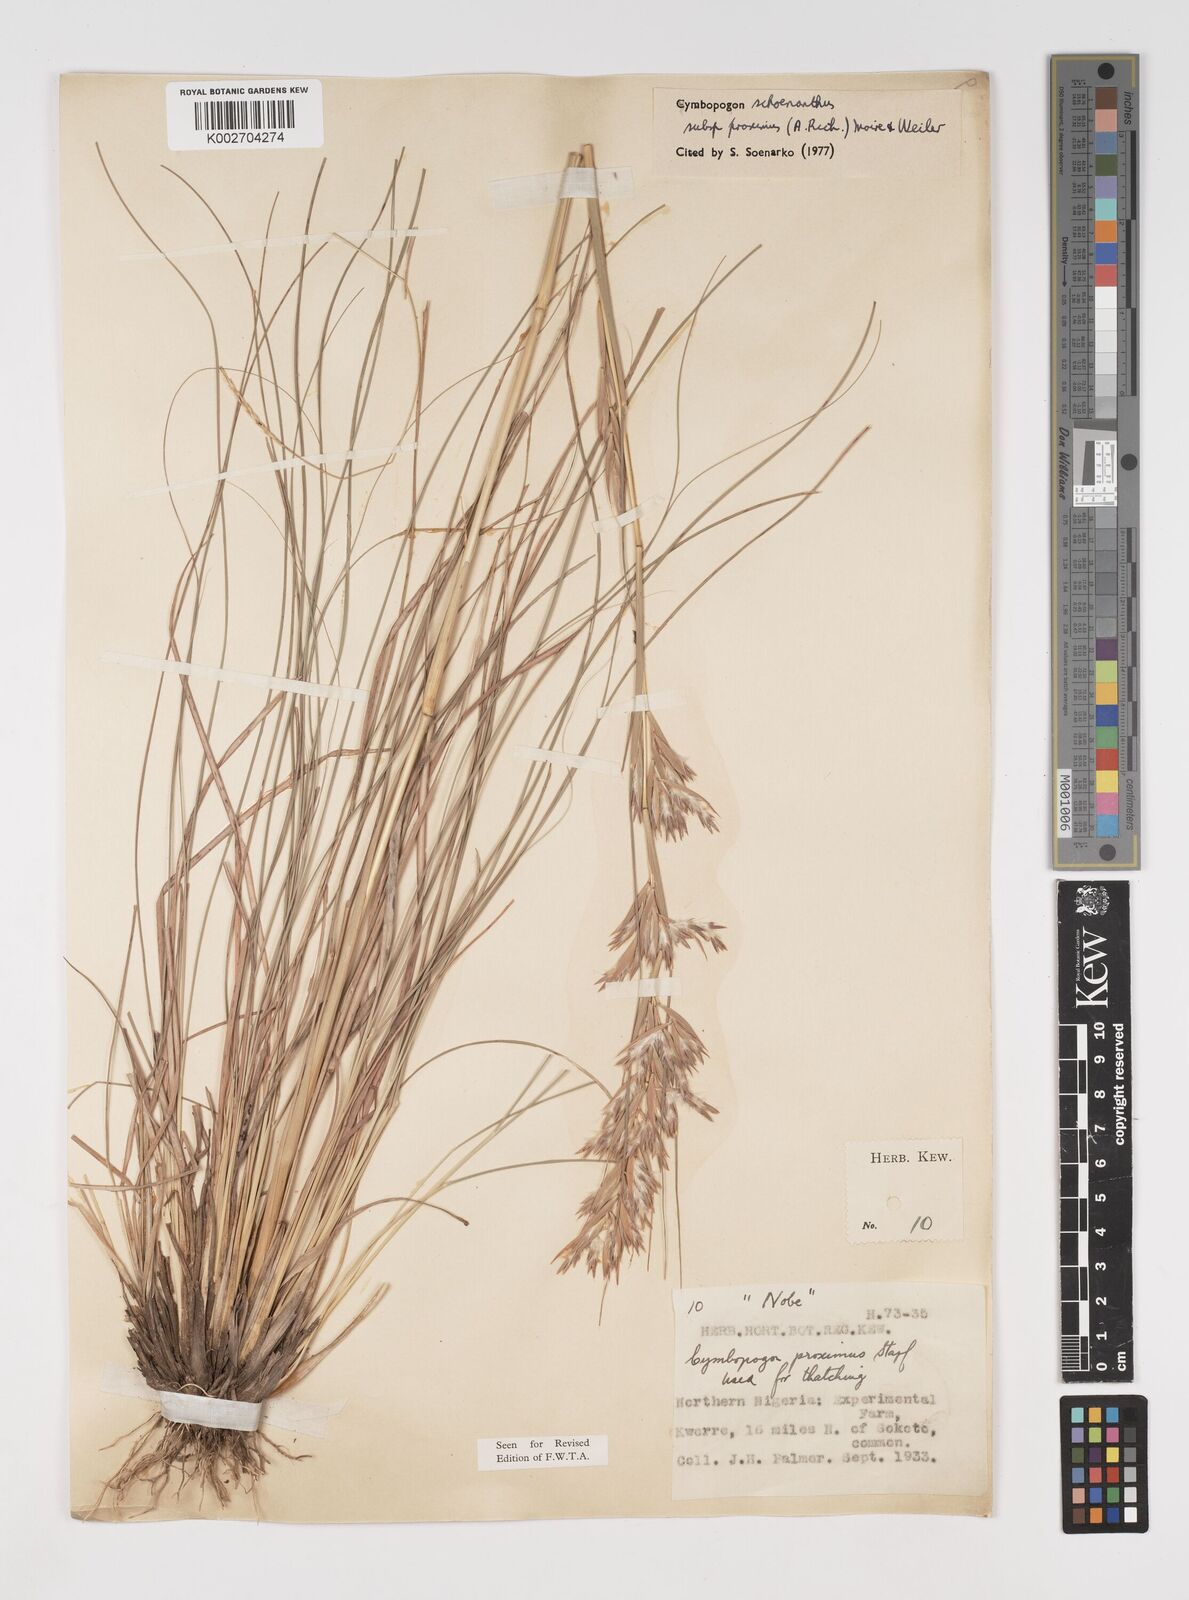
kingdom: Plantae
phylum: Tracheophyta
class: Liliopsida
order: Poales
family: Poaceae
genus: Cymbopogon
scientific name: Cymbopogon schoenanthus
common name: Geranium grass
